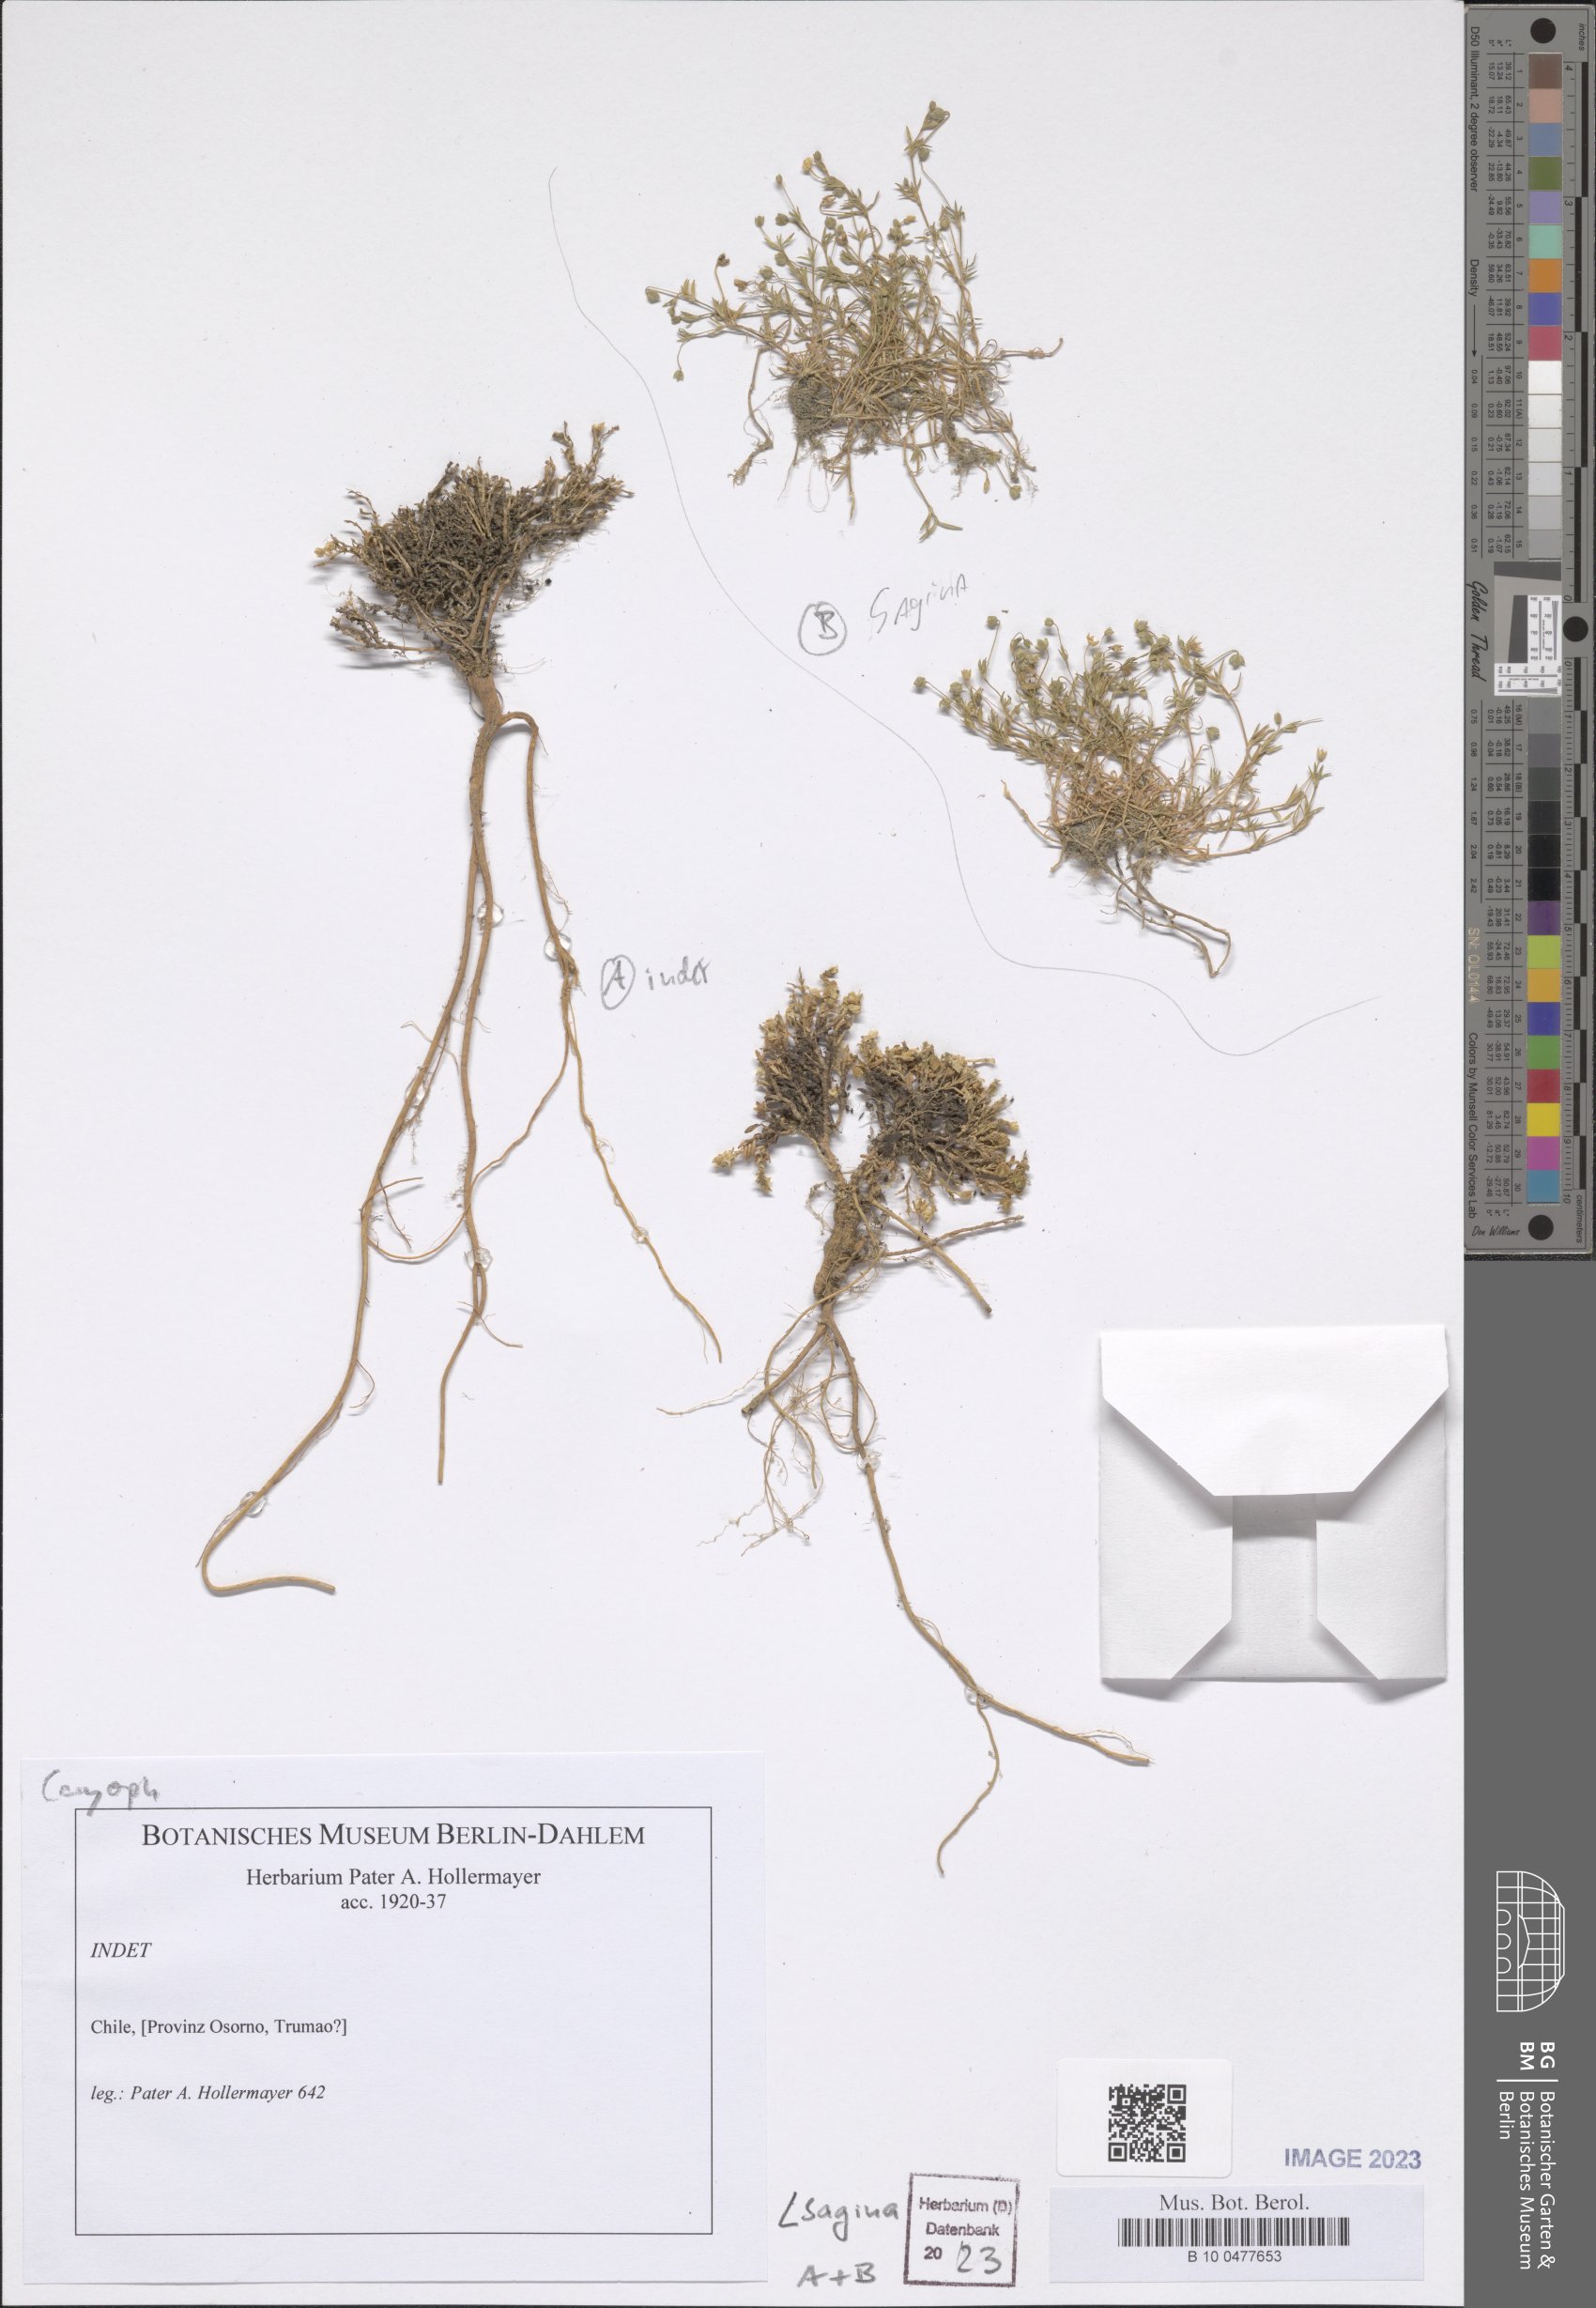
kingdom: Plantae
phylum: Tracheophyta
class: Magnoliopsida
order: Caryophyllales
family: Caryophyllaceae
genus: Sagina
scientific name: Sagina
